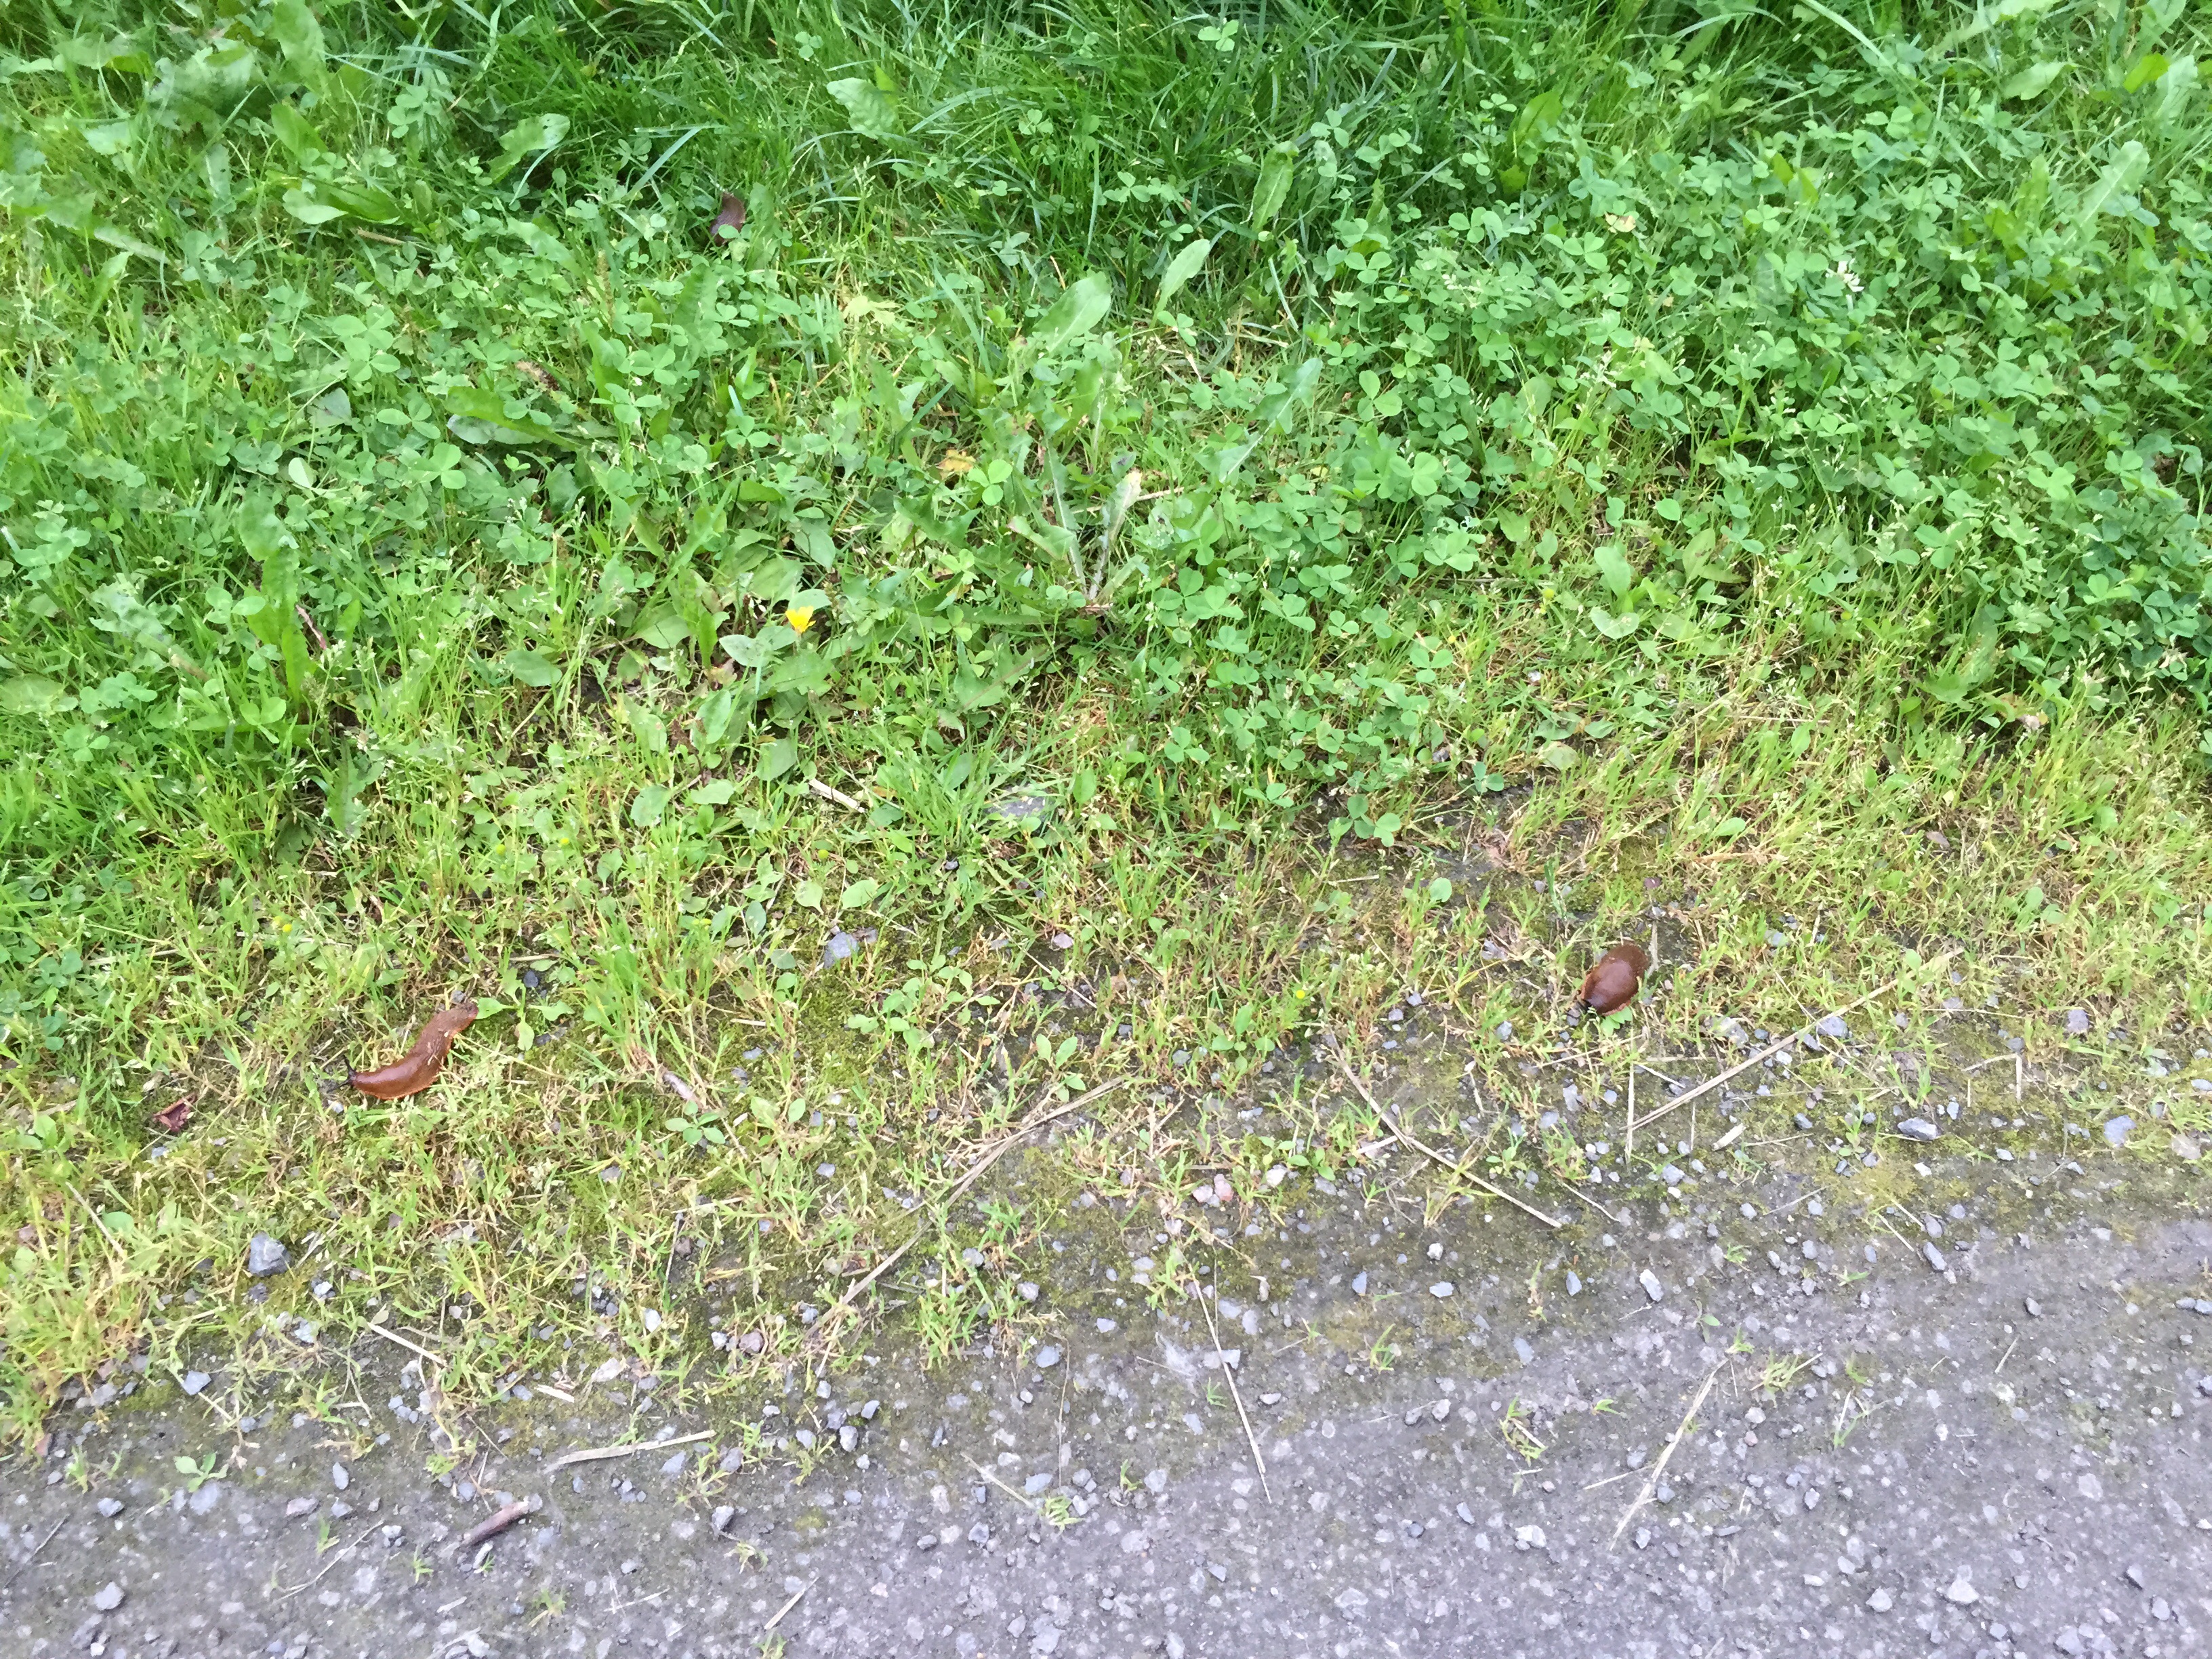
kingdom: Animalia
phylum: Mollusca
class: Gastropoda
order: Stylommatophora
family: Arionidae
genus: Arion
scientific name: Arion vulgaris
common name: Lusitanian slug
